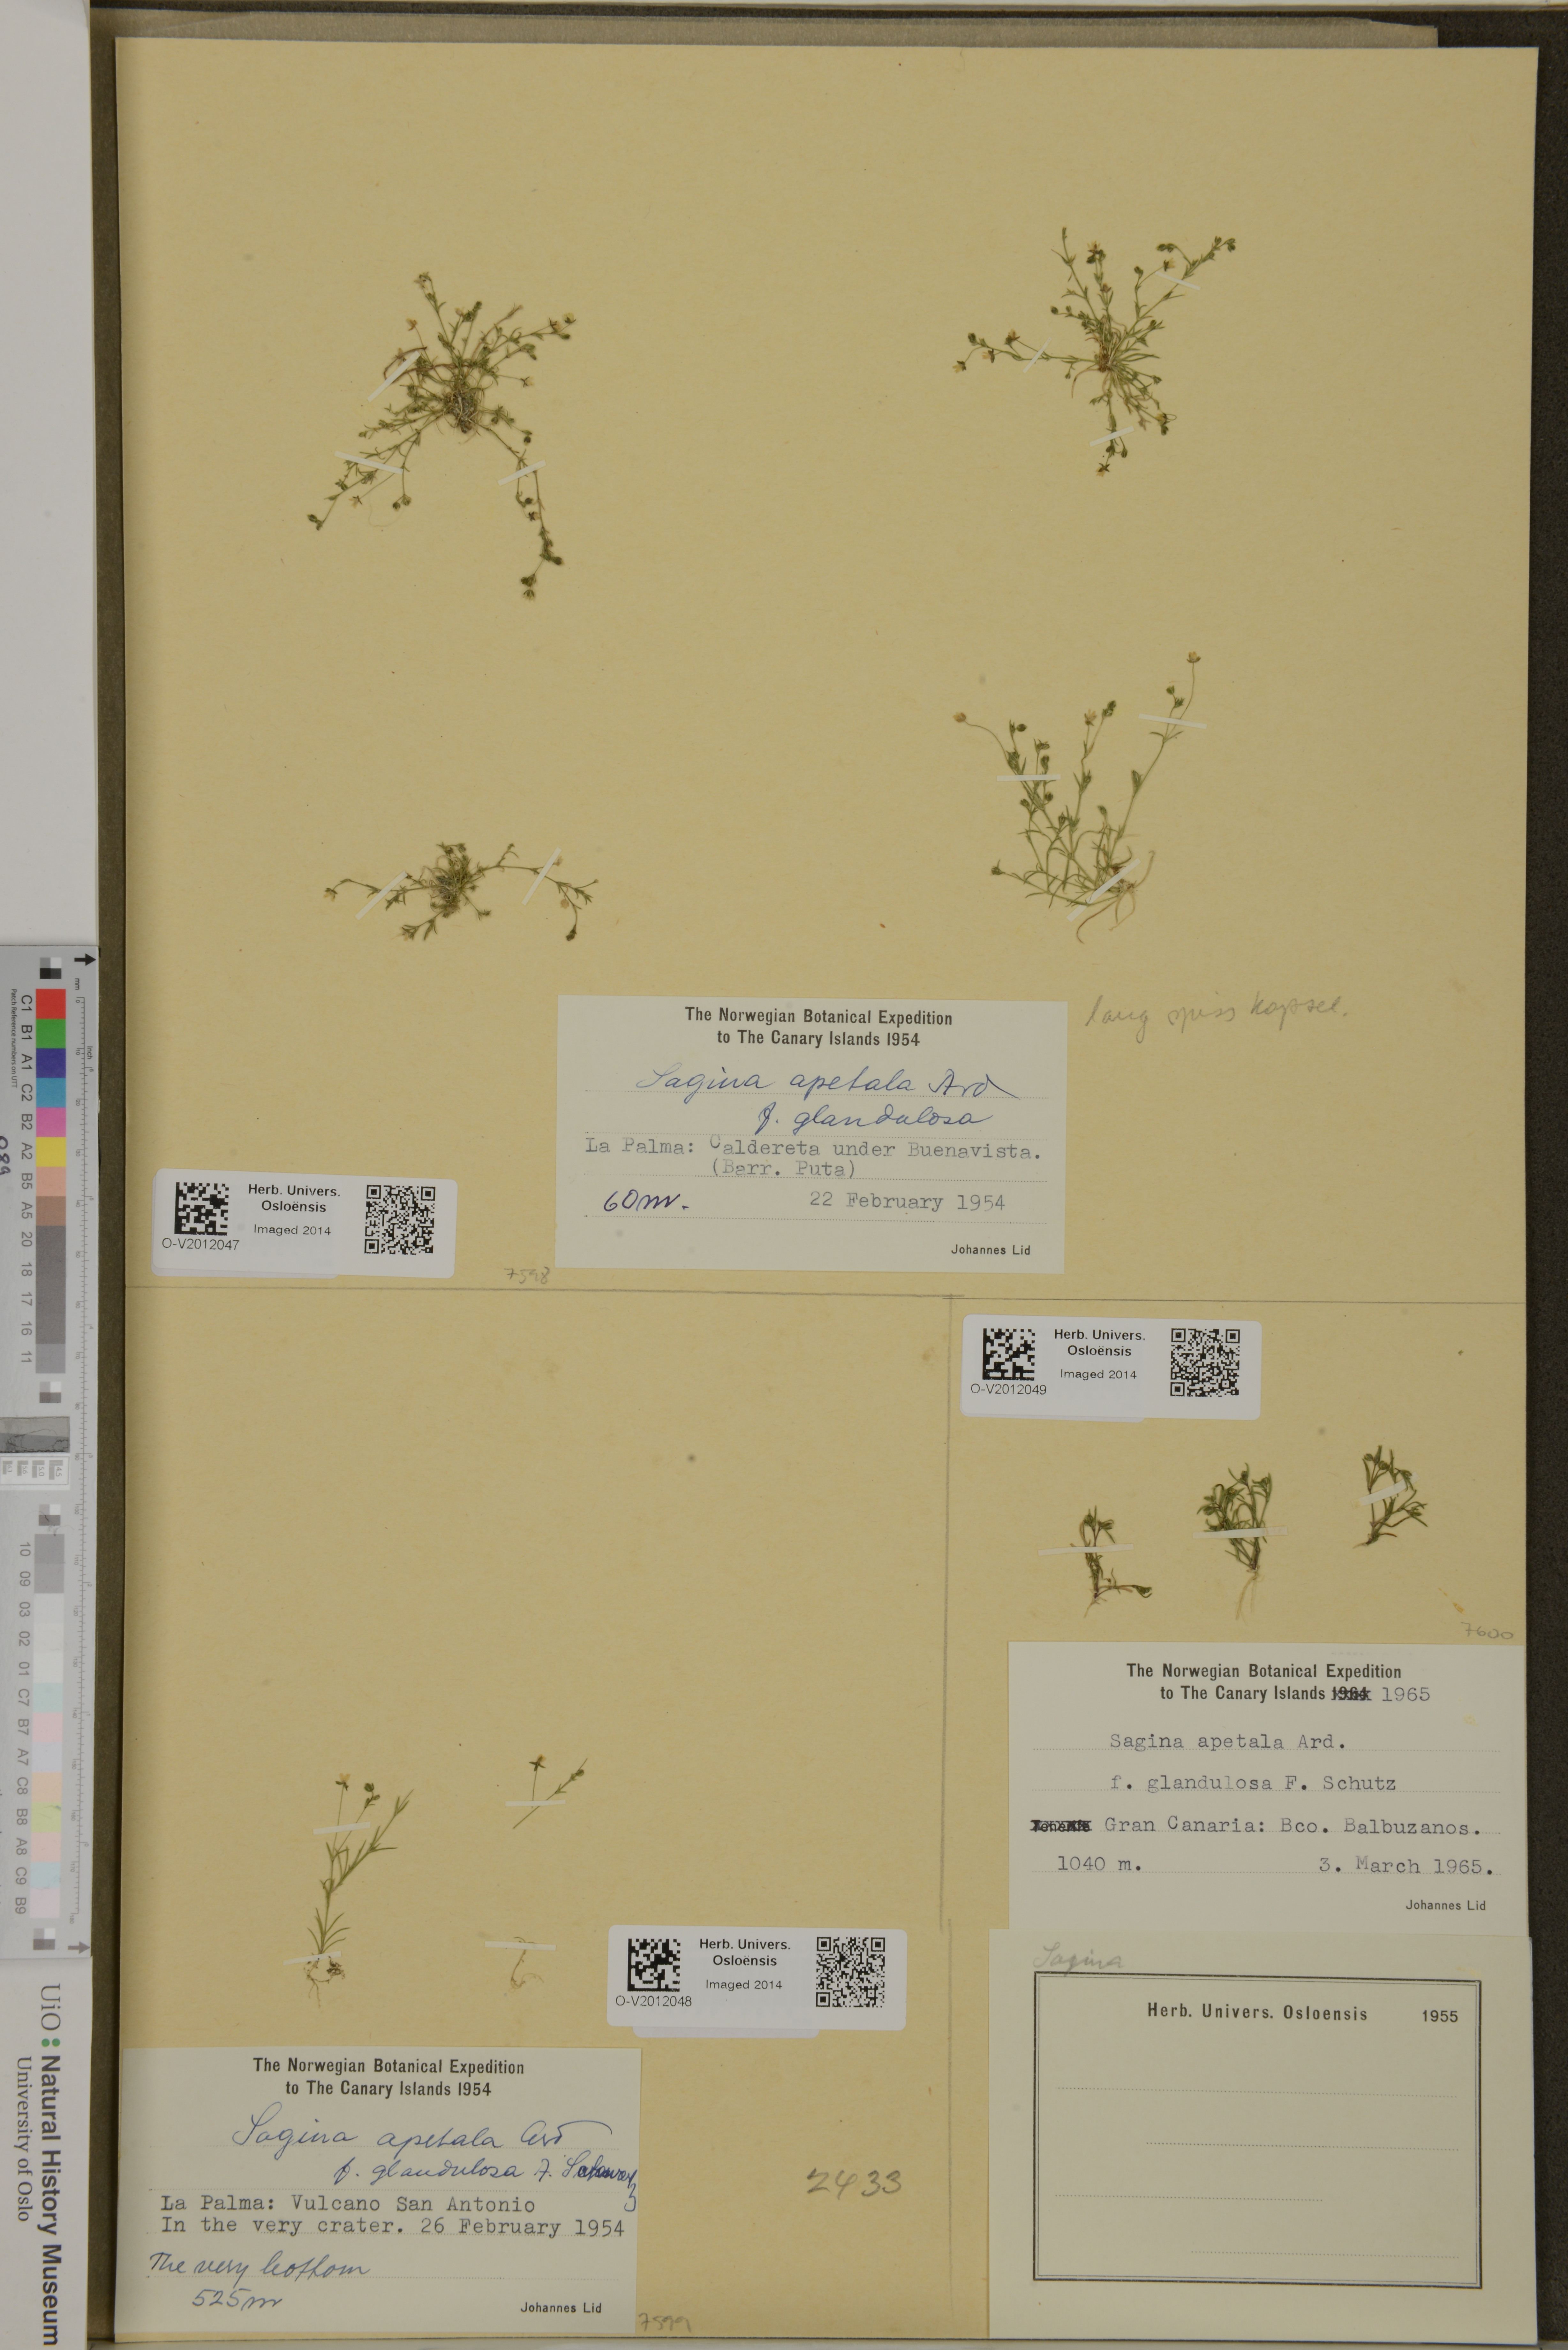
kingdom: Plantae
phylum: Tracheophyta
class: Magnoliopsida
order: Caryophyllales
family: Caryophyllaceae
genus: Sagina
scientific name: Sagina apetala
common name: Annual pearlwort
